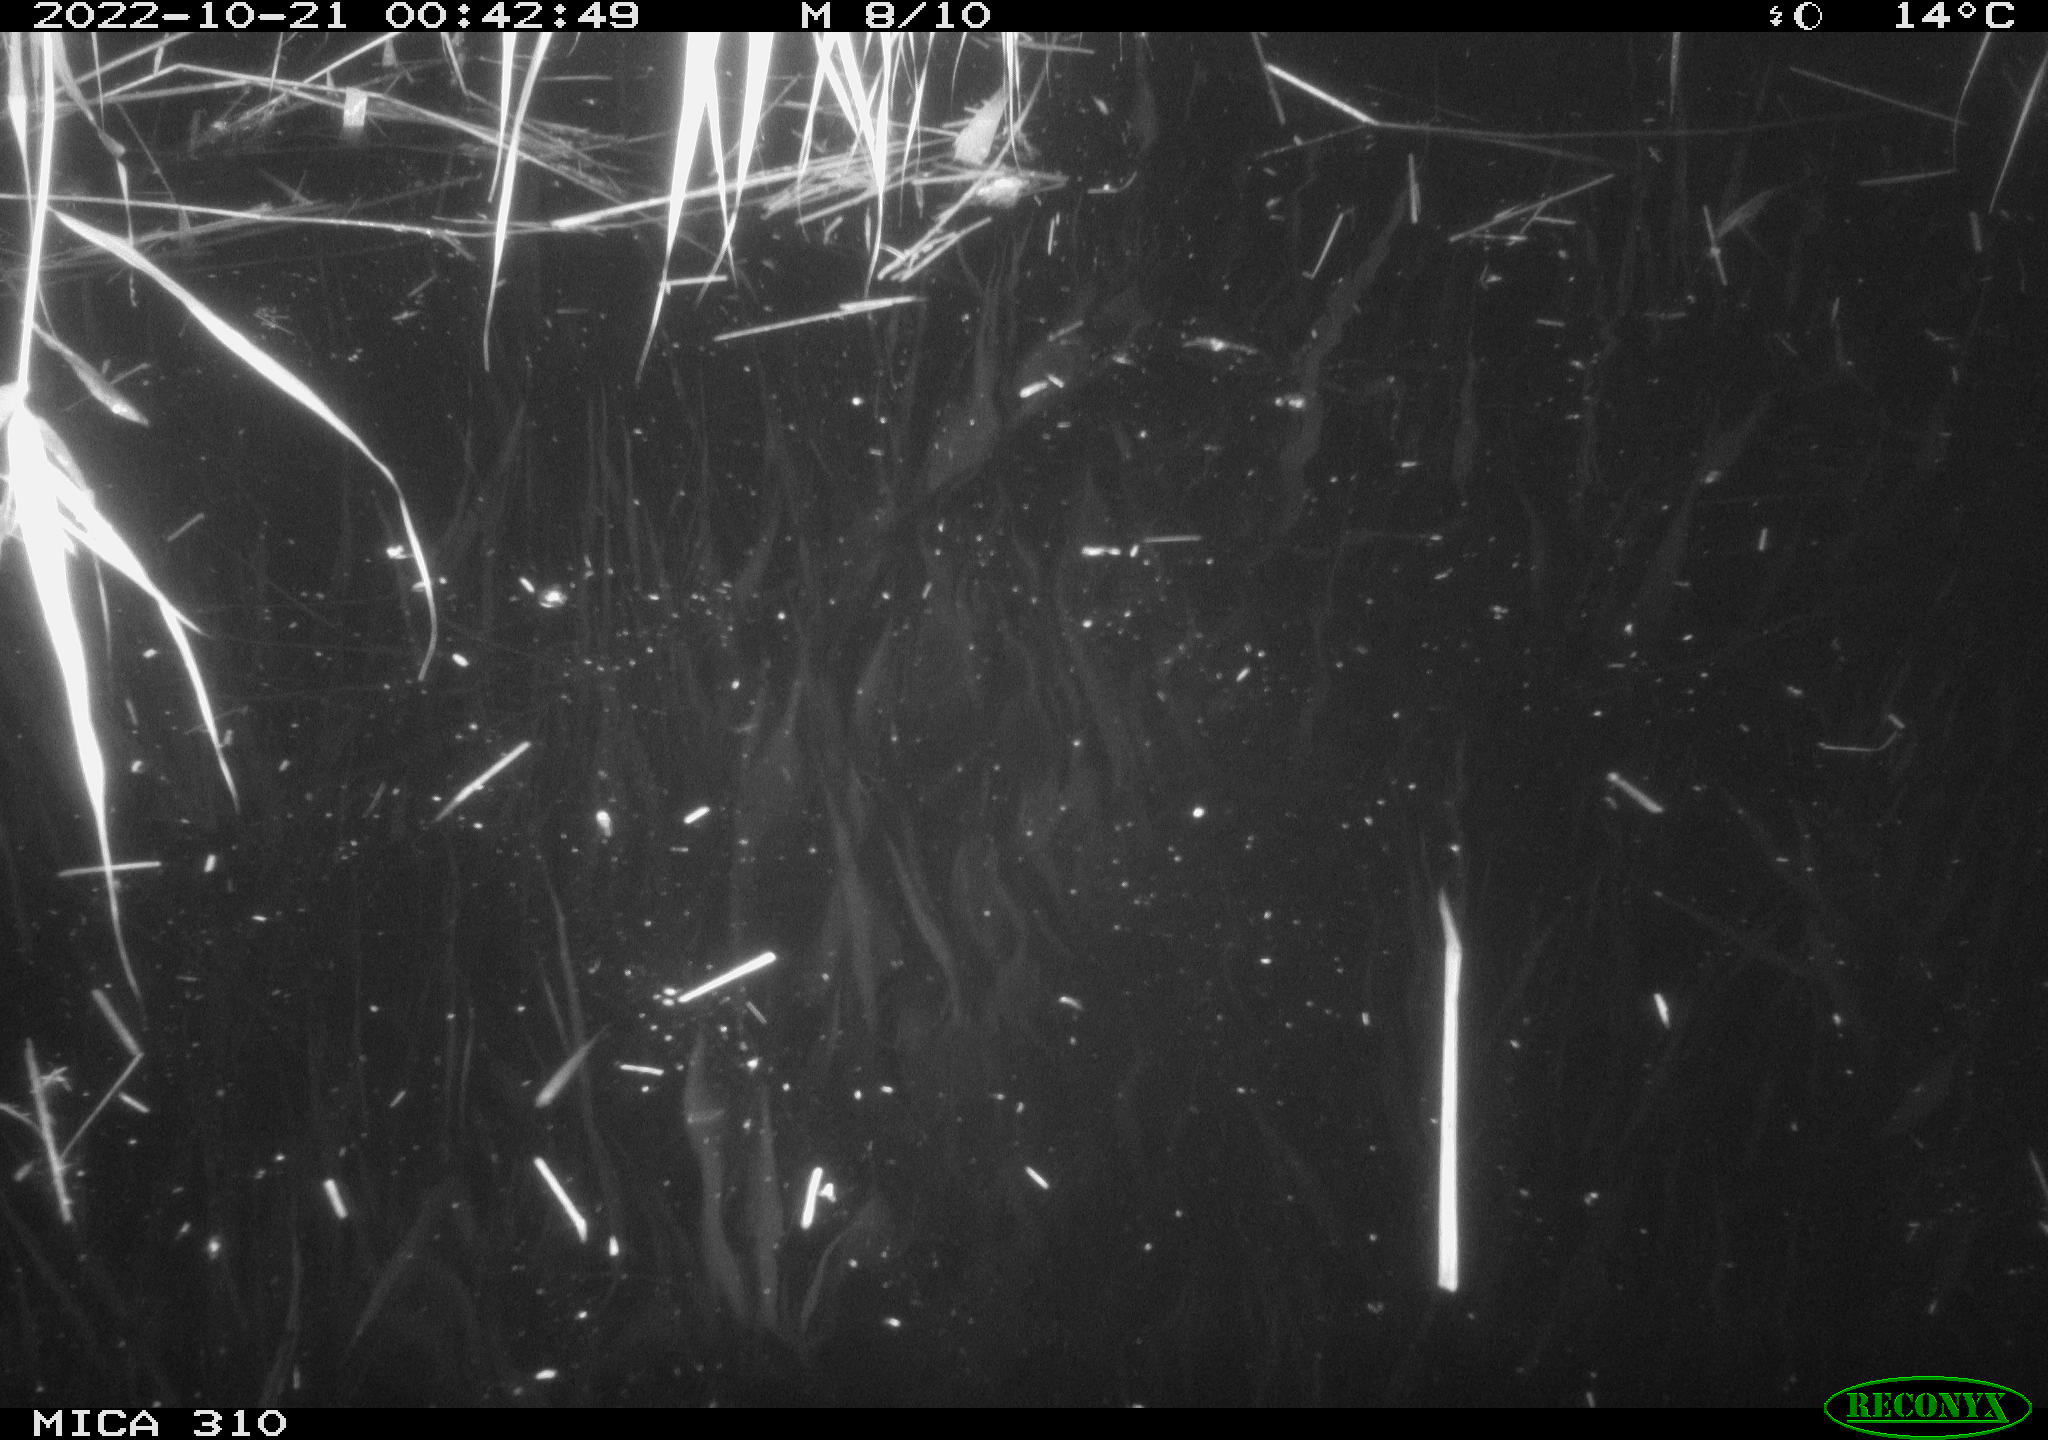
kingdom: Animalia
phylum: Chordata
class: Mammalia
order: Rodentia
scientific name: Rodentia
